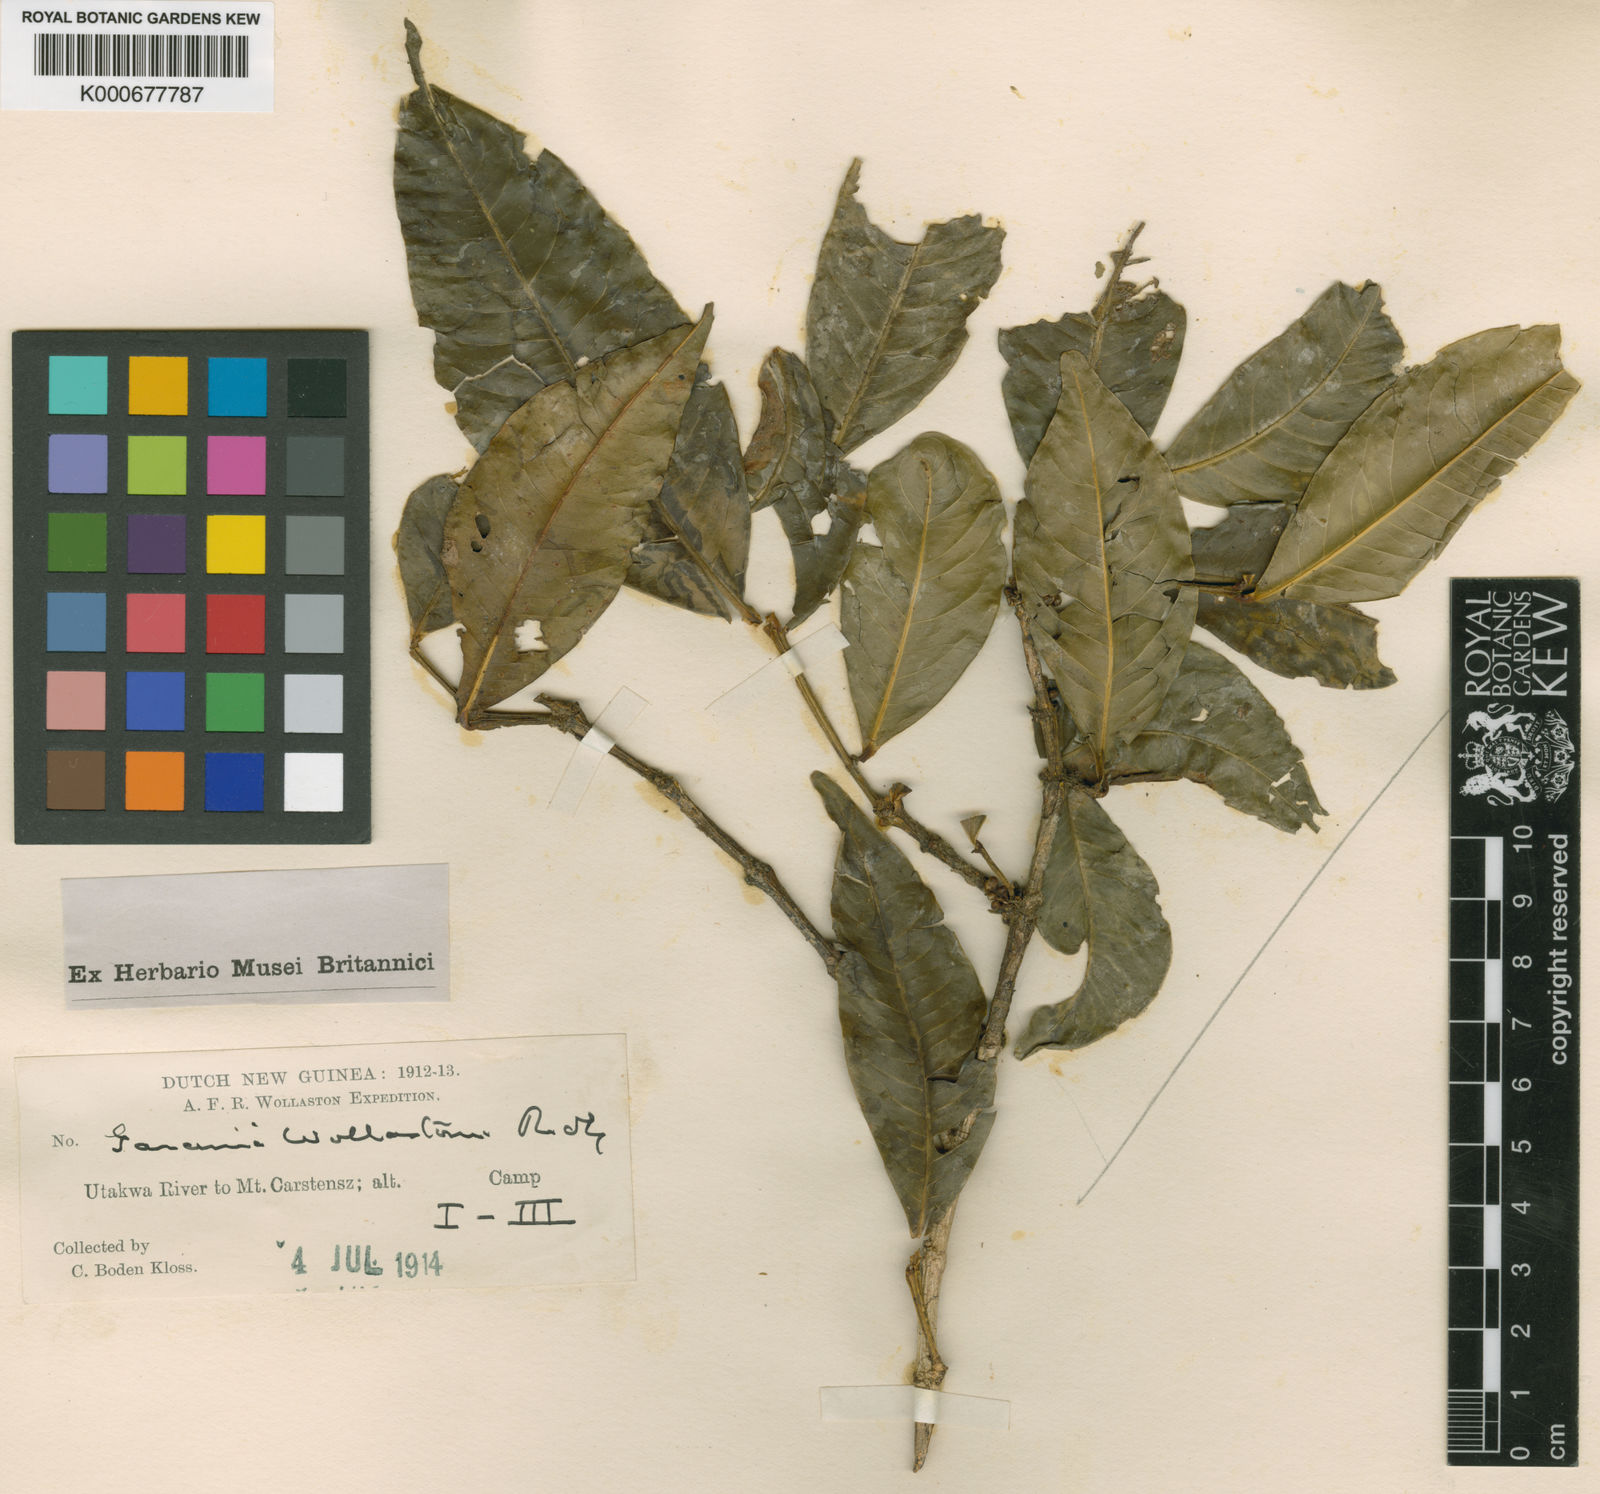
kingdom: Plantae
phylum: Tracheophyta
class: Magnoliopsida
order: Malpighiales
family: Clusiaceae
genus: Garcinia
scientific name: Garcinia wollastonii
